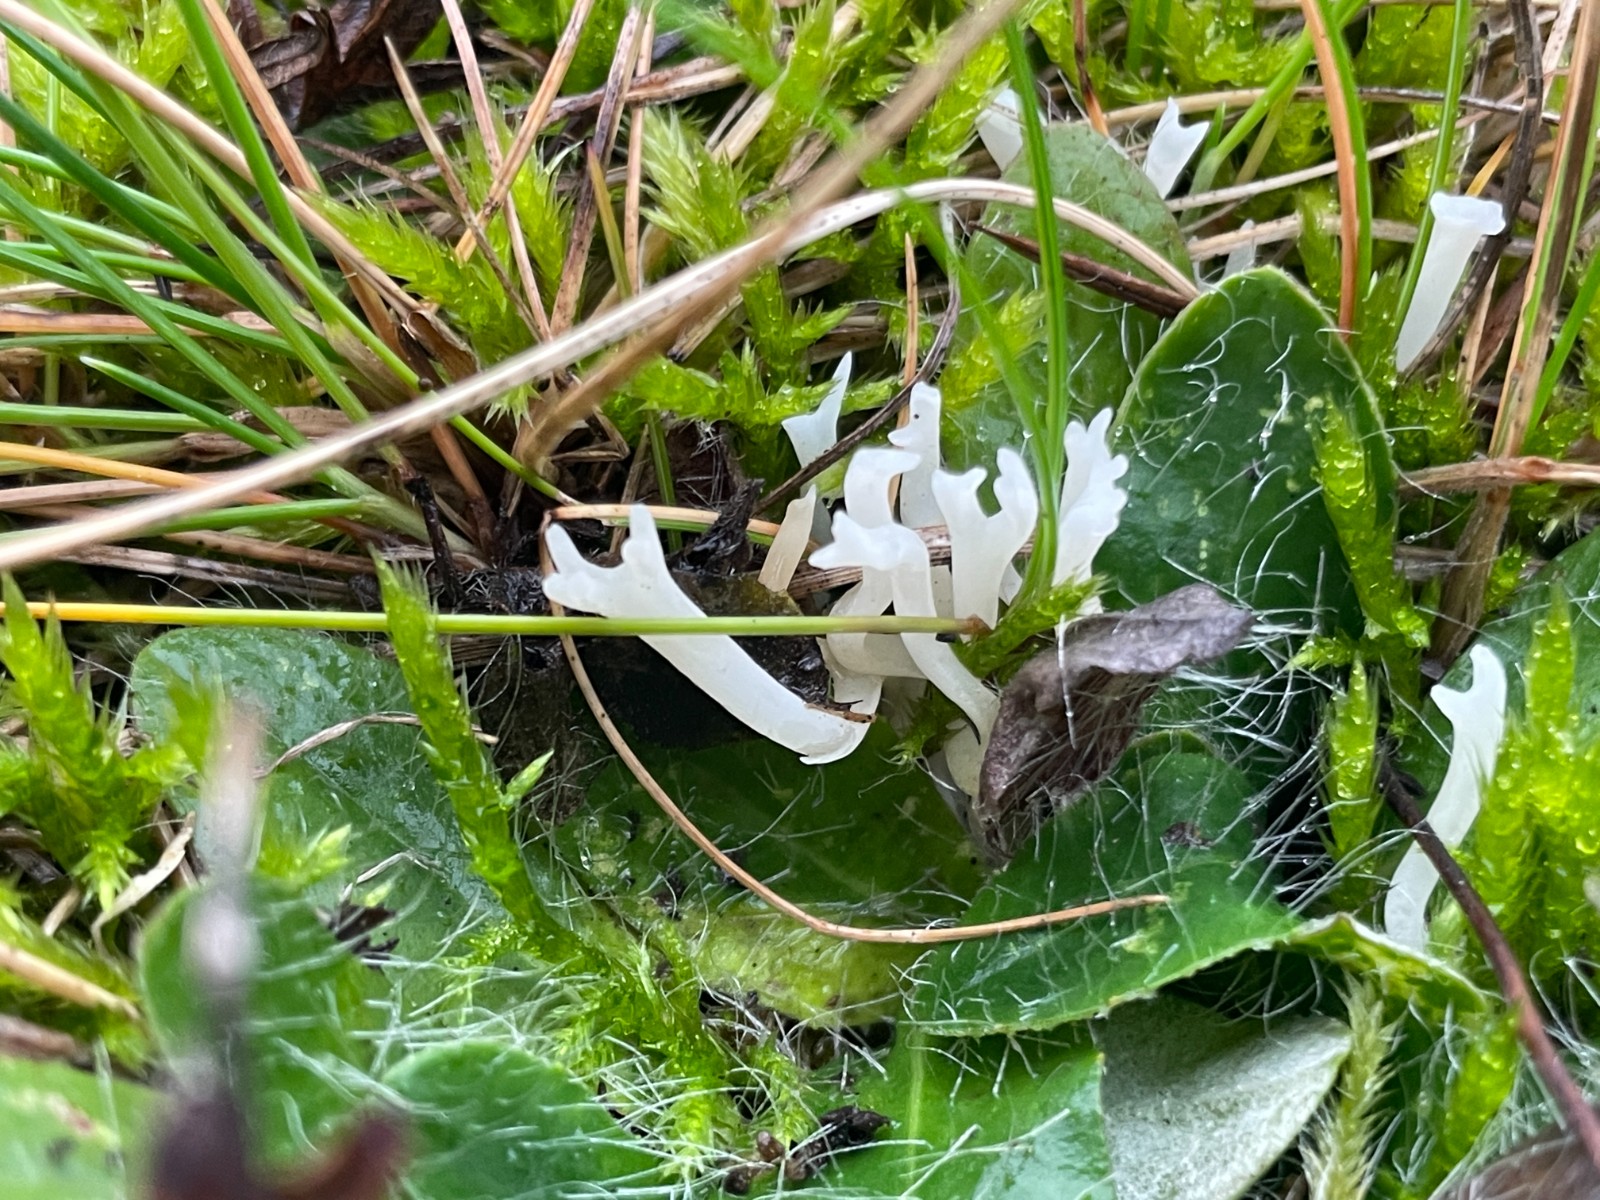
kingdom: Fungi
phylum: Basidiomycota
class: Agaricomycetes
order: Agaricales
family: Clavariaceae
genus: Ramariopsis
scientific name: Ramariopsis
